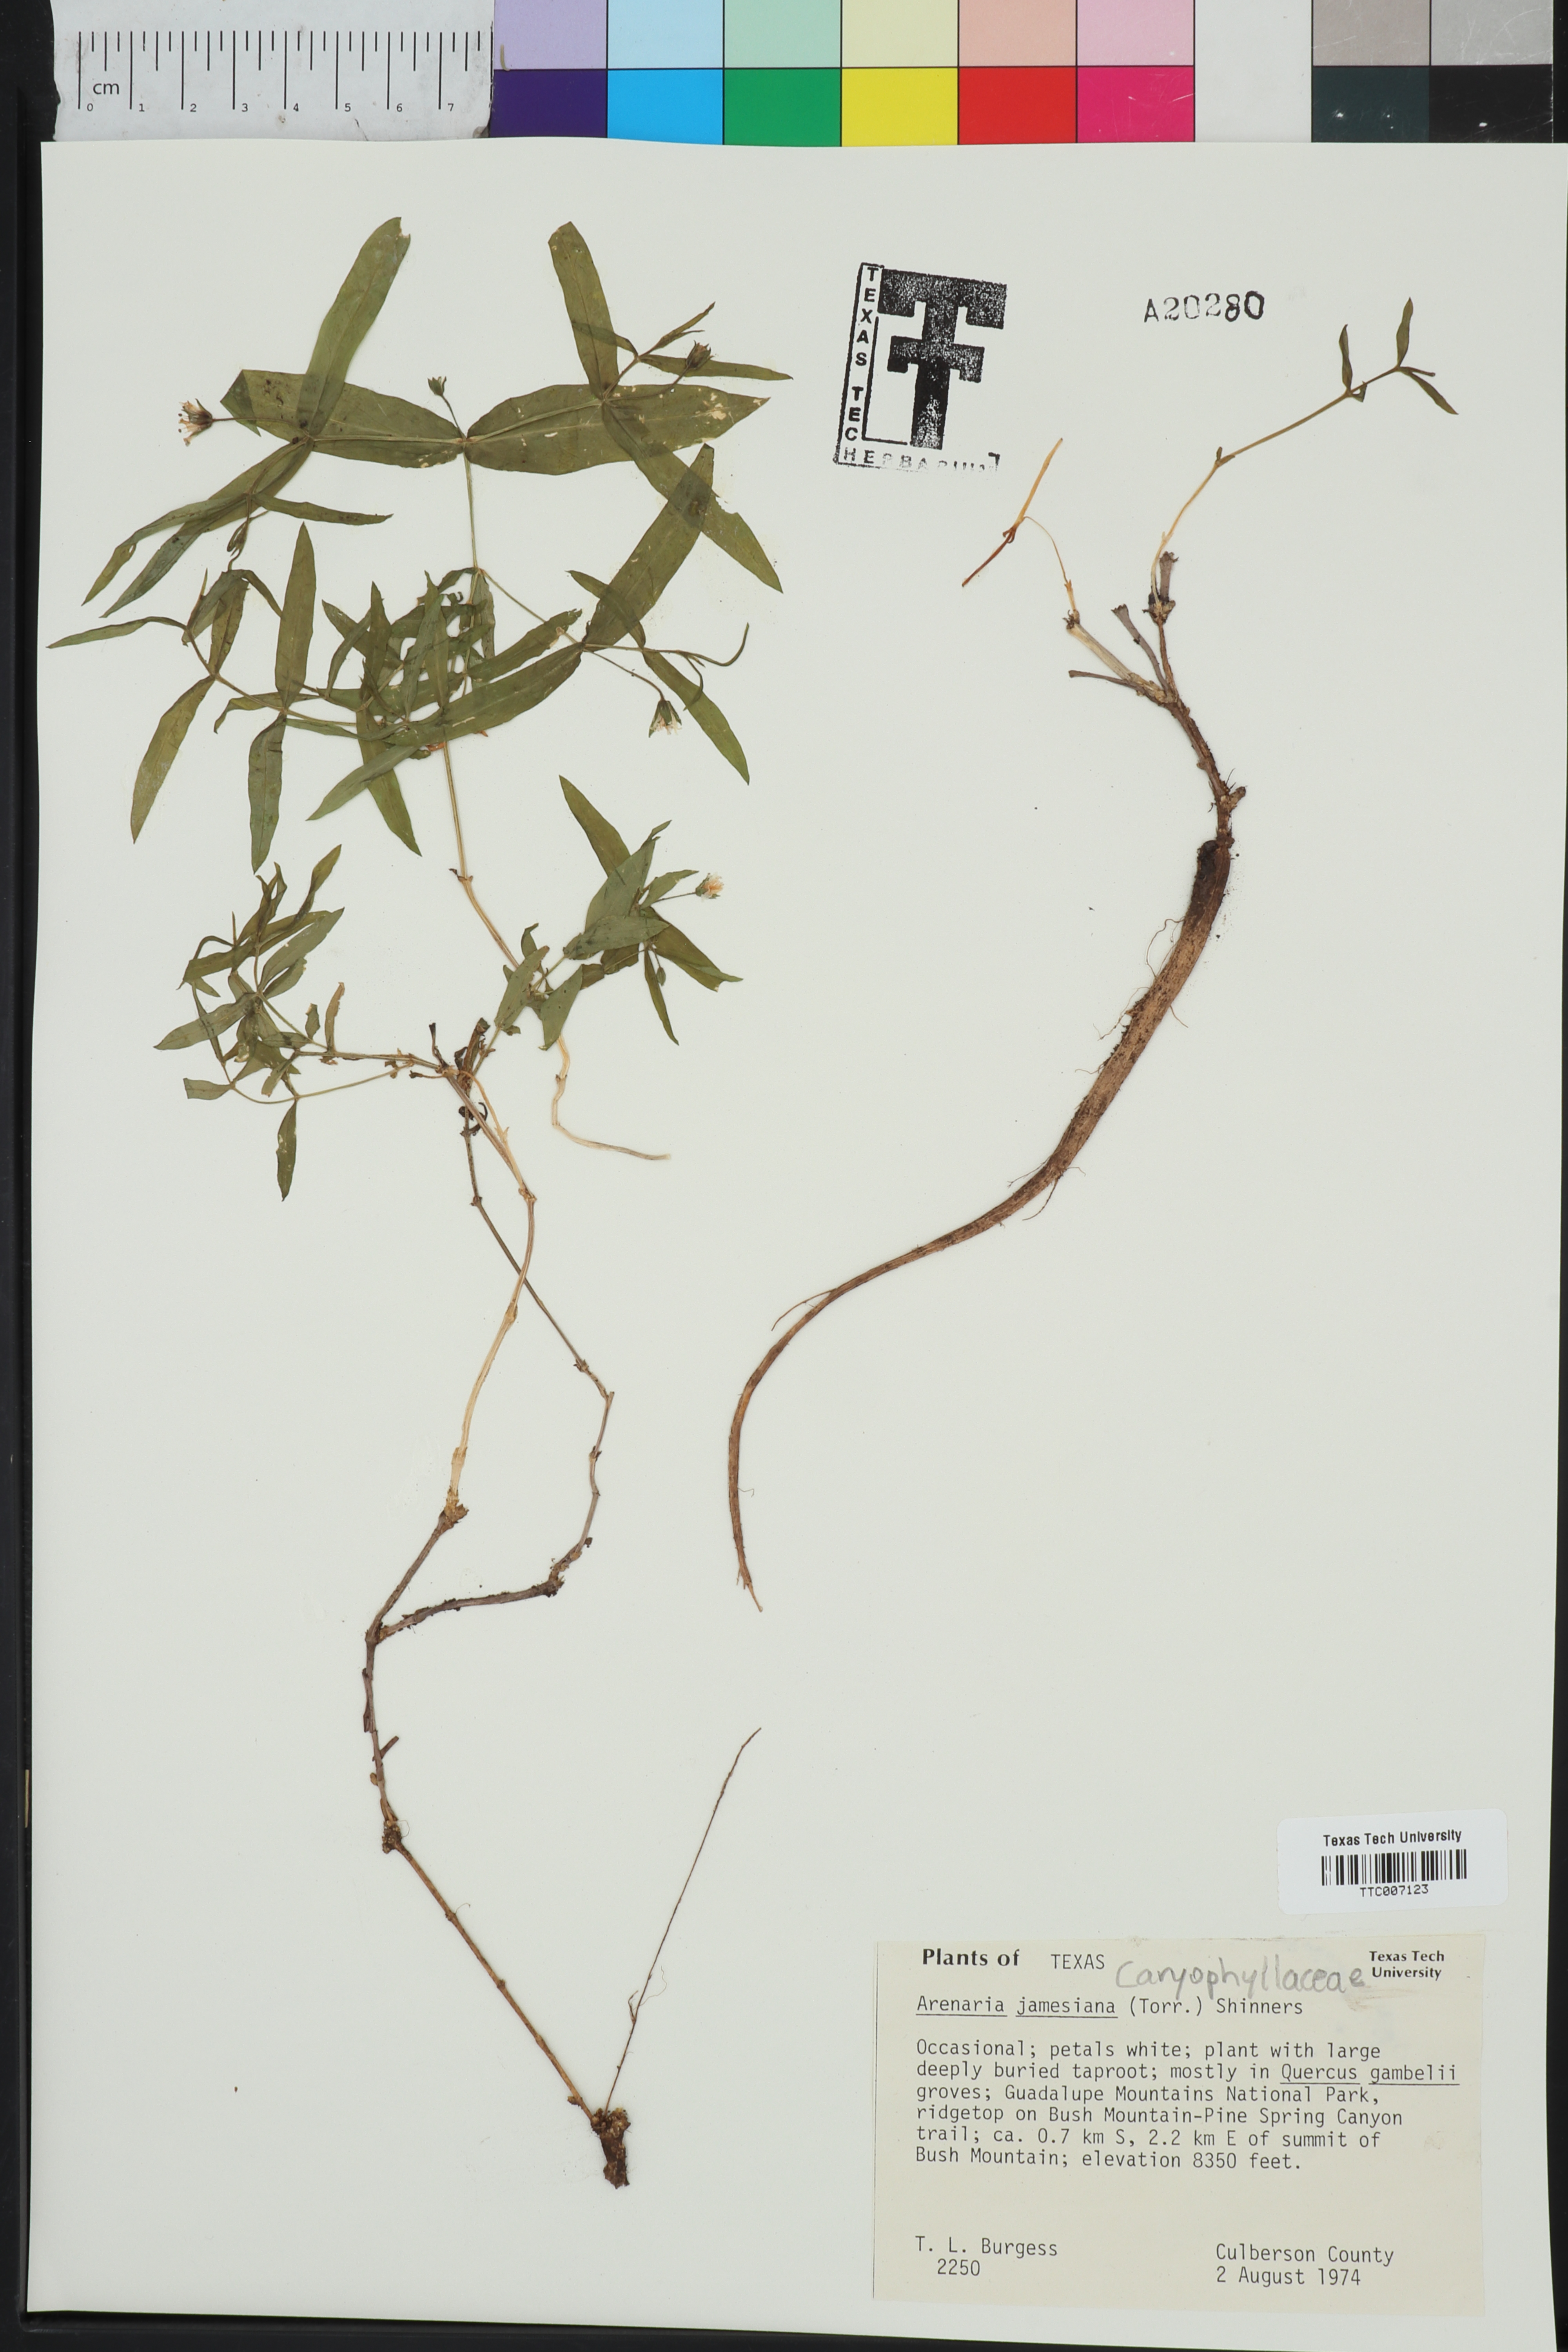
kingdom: Plantae
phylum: Tracheophyta
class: Magnoliopsida
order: Caryophyllales
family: Caryophyllaceae
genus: Schizotechium
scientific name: Schizotechium jamesianum
